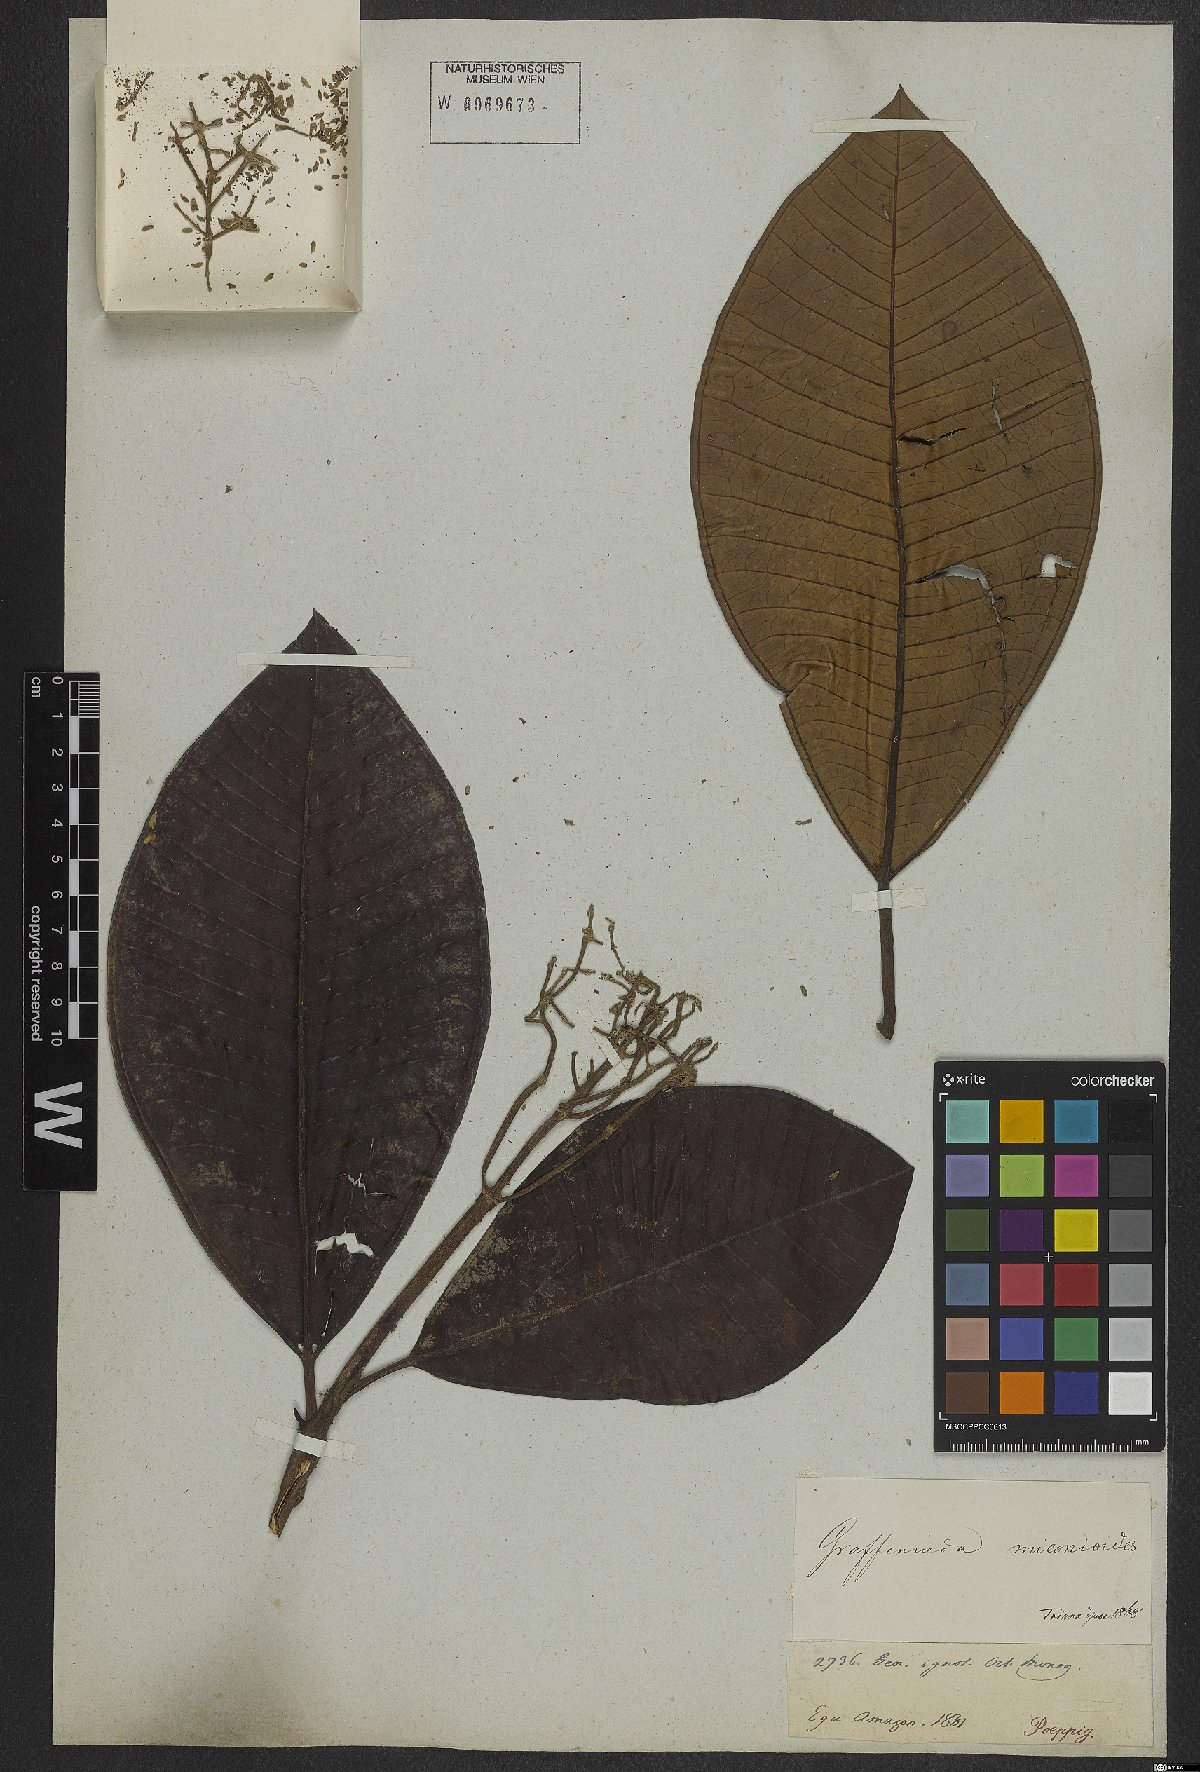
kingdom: Plantae
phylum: Tracheophyta
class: Magnoliopsida
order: Myrtales
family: Melastomataceae
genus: Graffenrieda
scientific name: Graffenrieda miconioides
